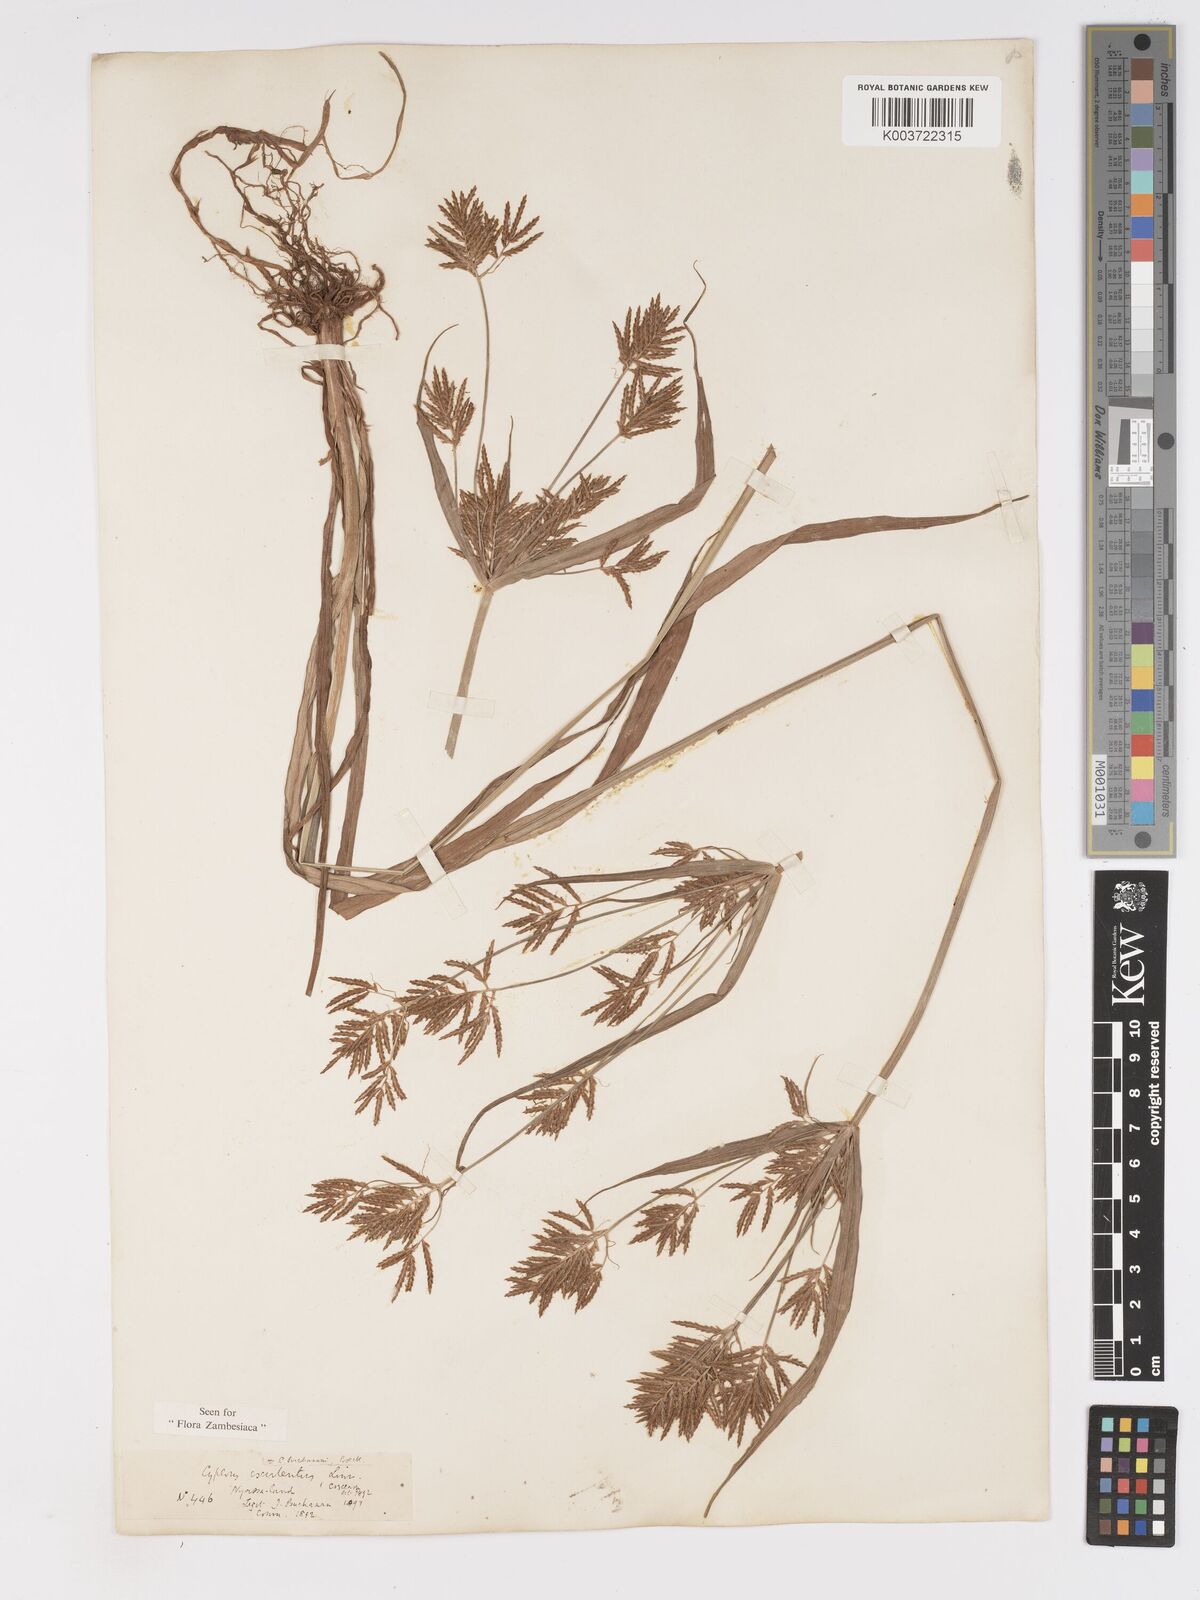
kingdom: Plantae
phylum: Tracheophyta
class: Liliopsida
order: Poales
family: Cyperaceae
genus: Cyperus
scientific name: Cyperus esculentus
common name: Yellow nutsedge
